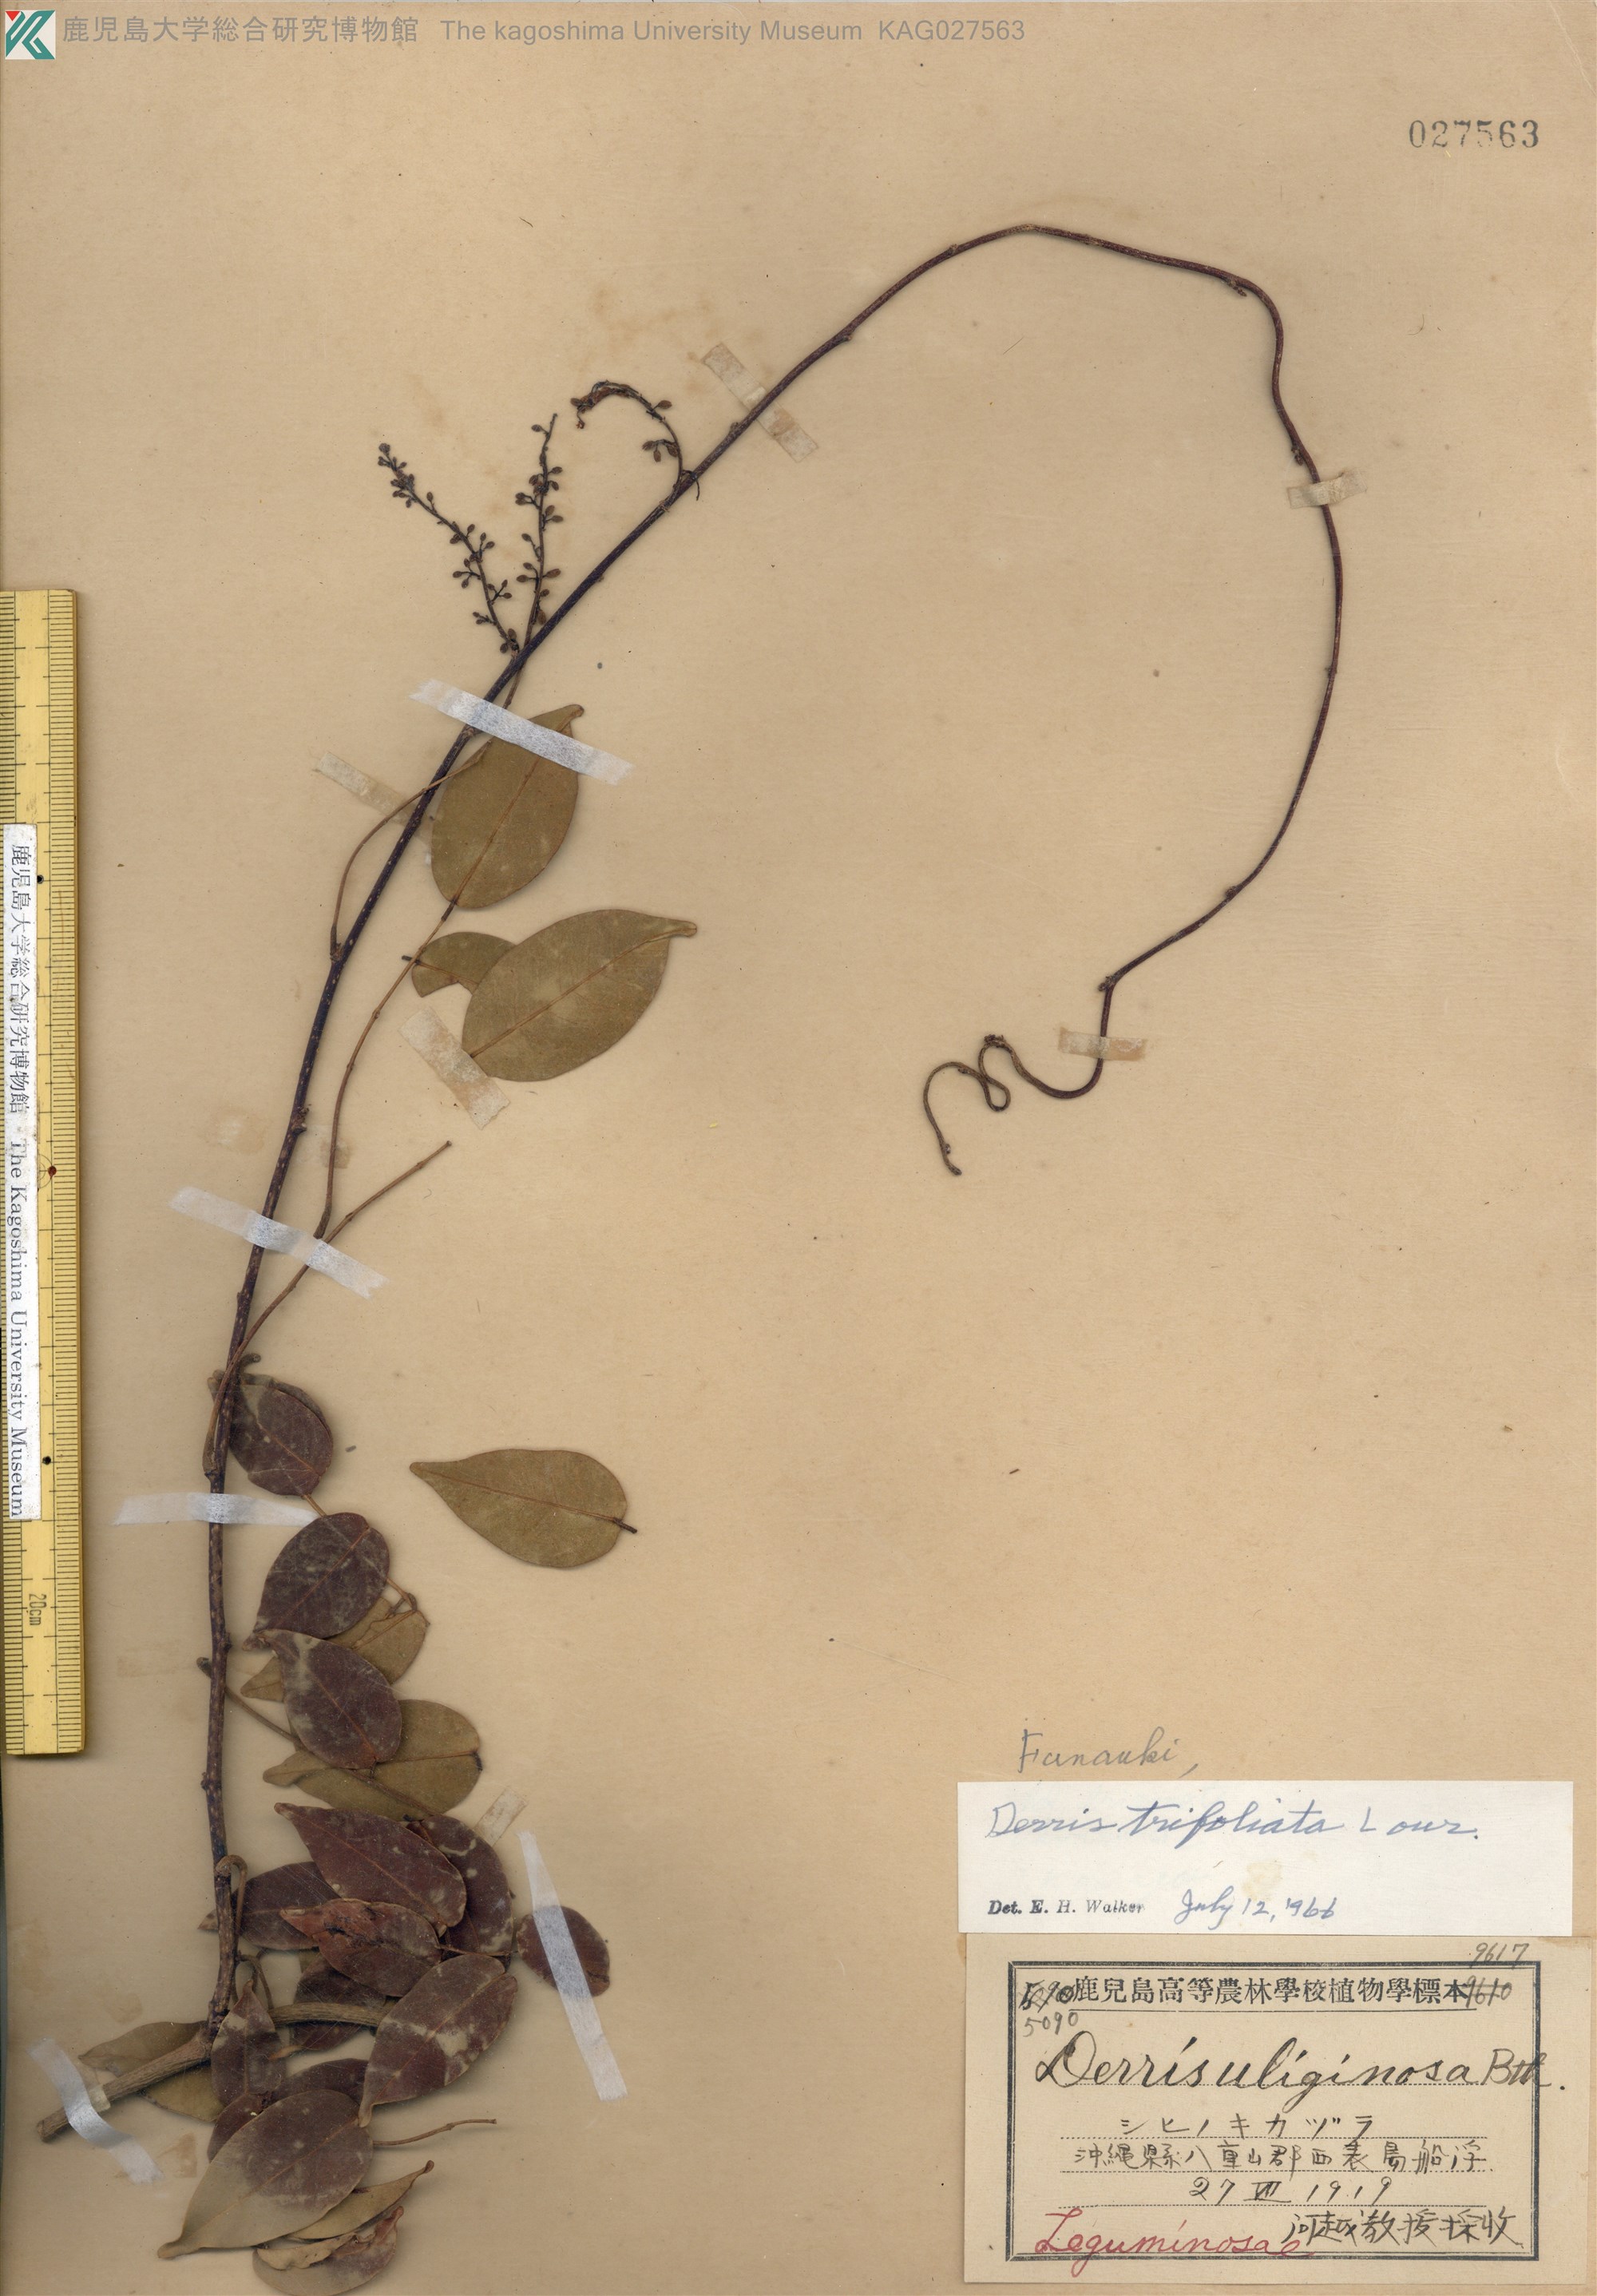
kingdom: Plantae
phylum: Tracheophyta
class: Magnoliopsida
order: Fabales
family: Fabaceae
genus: Derris
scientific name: Derris trifoliata
